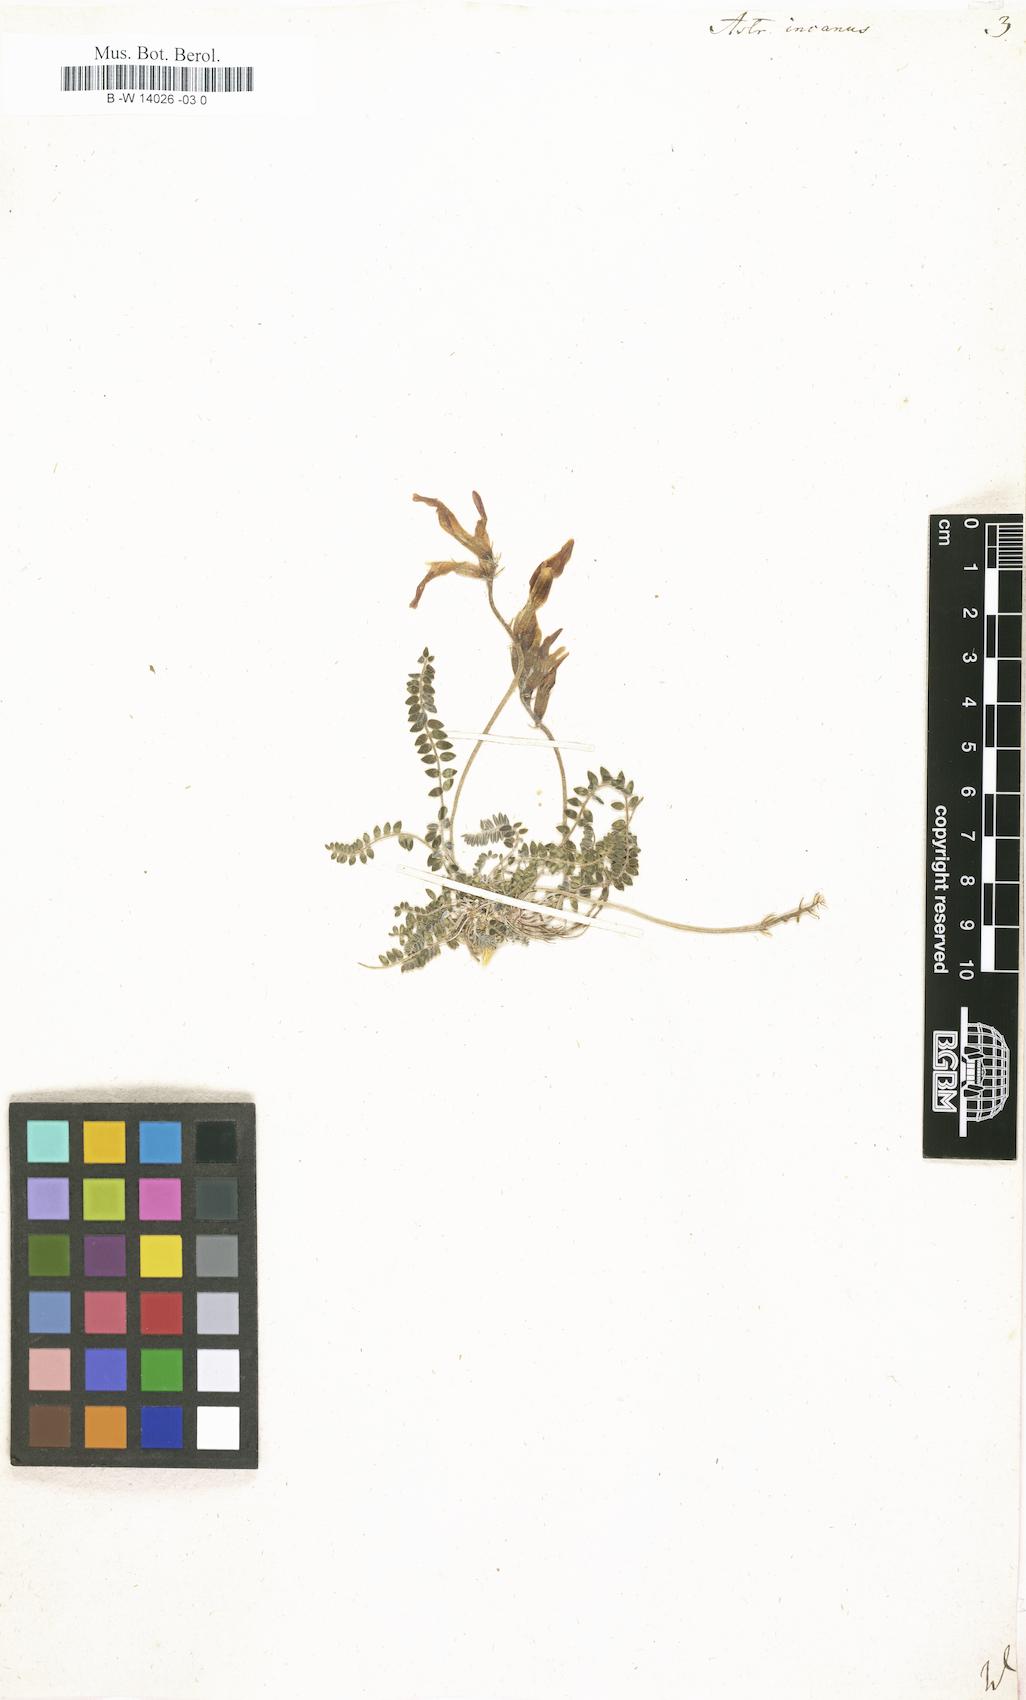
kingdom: Plantae
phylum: Tracheophyta
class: Magnoliopsida
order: Fabales
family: Fabaceae
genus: Astragalus
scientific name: Astragalus incanus
